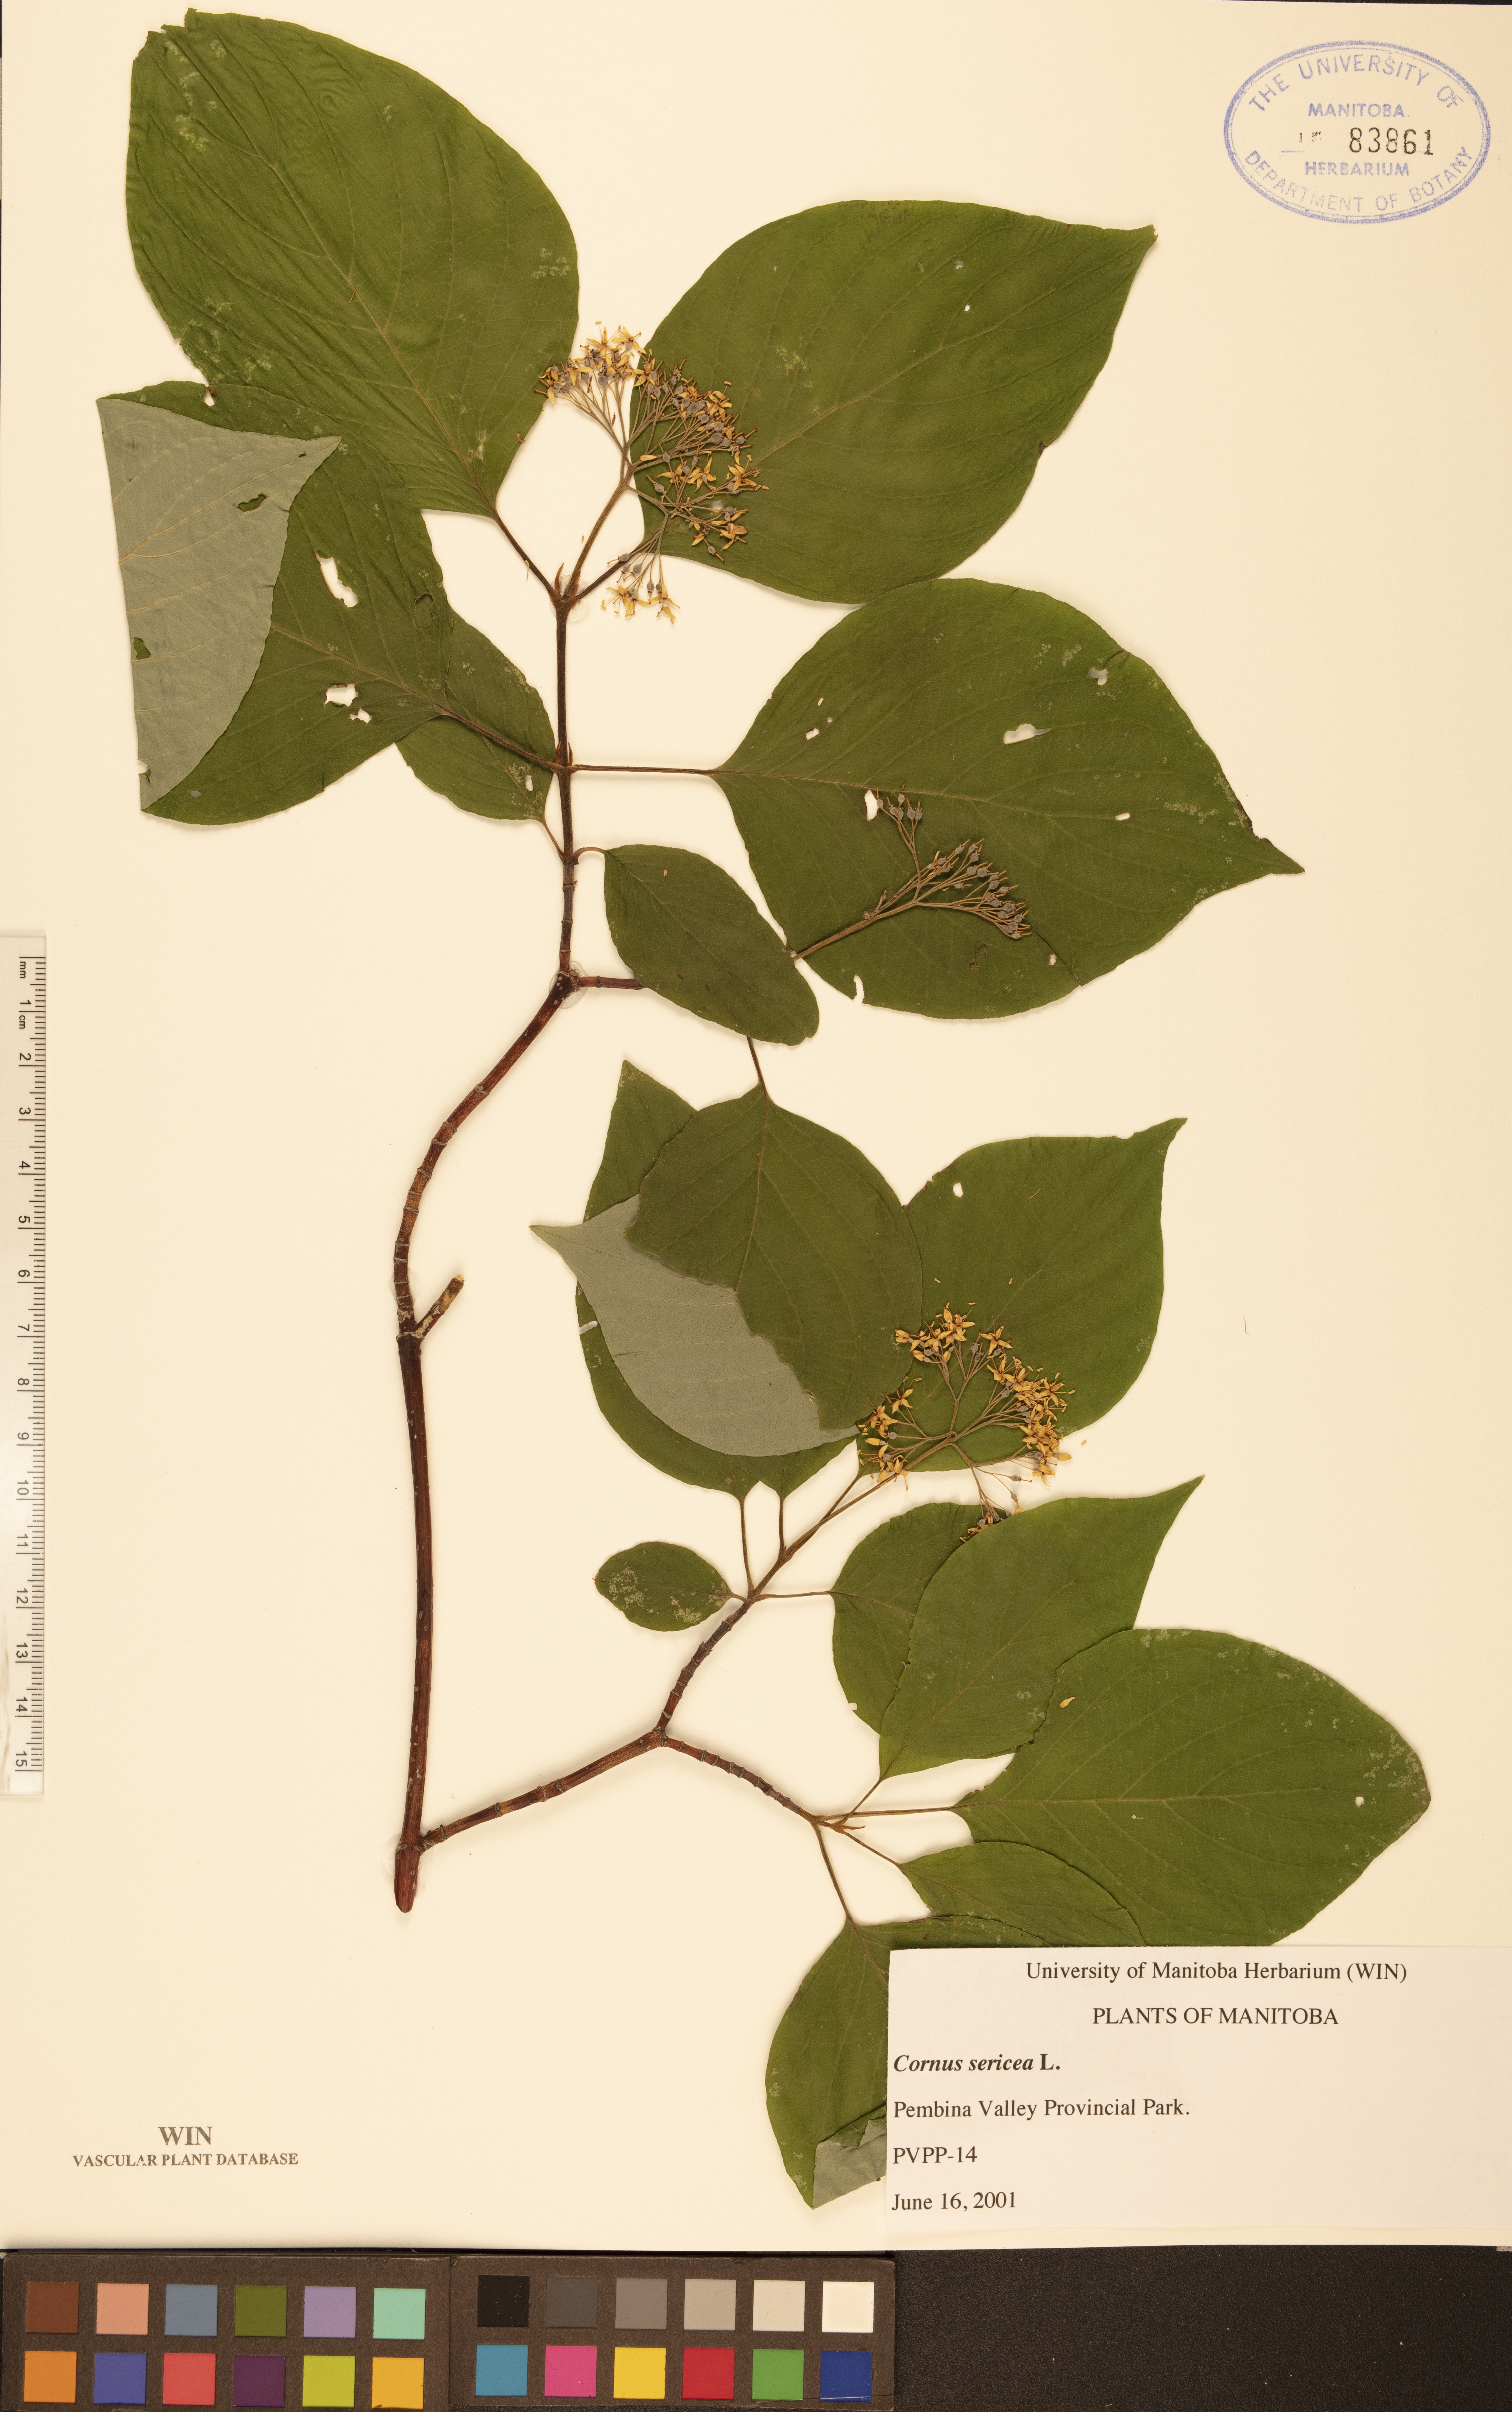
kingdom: Plantae
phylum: Tracheophyta
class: Magnoliopsida
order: Cornales
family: Cornaceae
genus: Cornus
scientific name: Cornus sericea
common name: Red-osier dogwood
